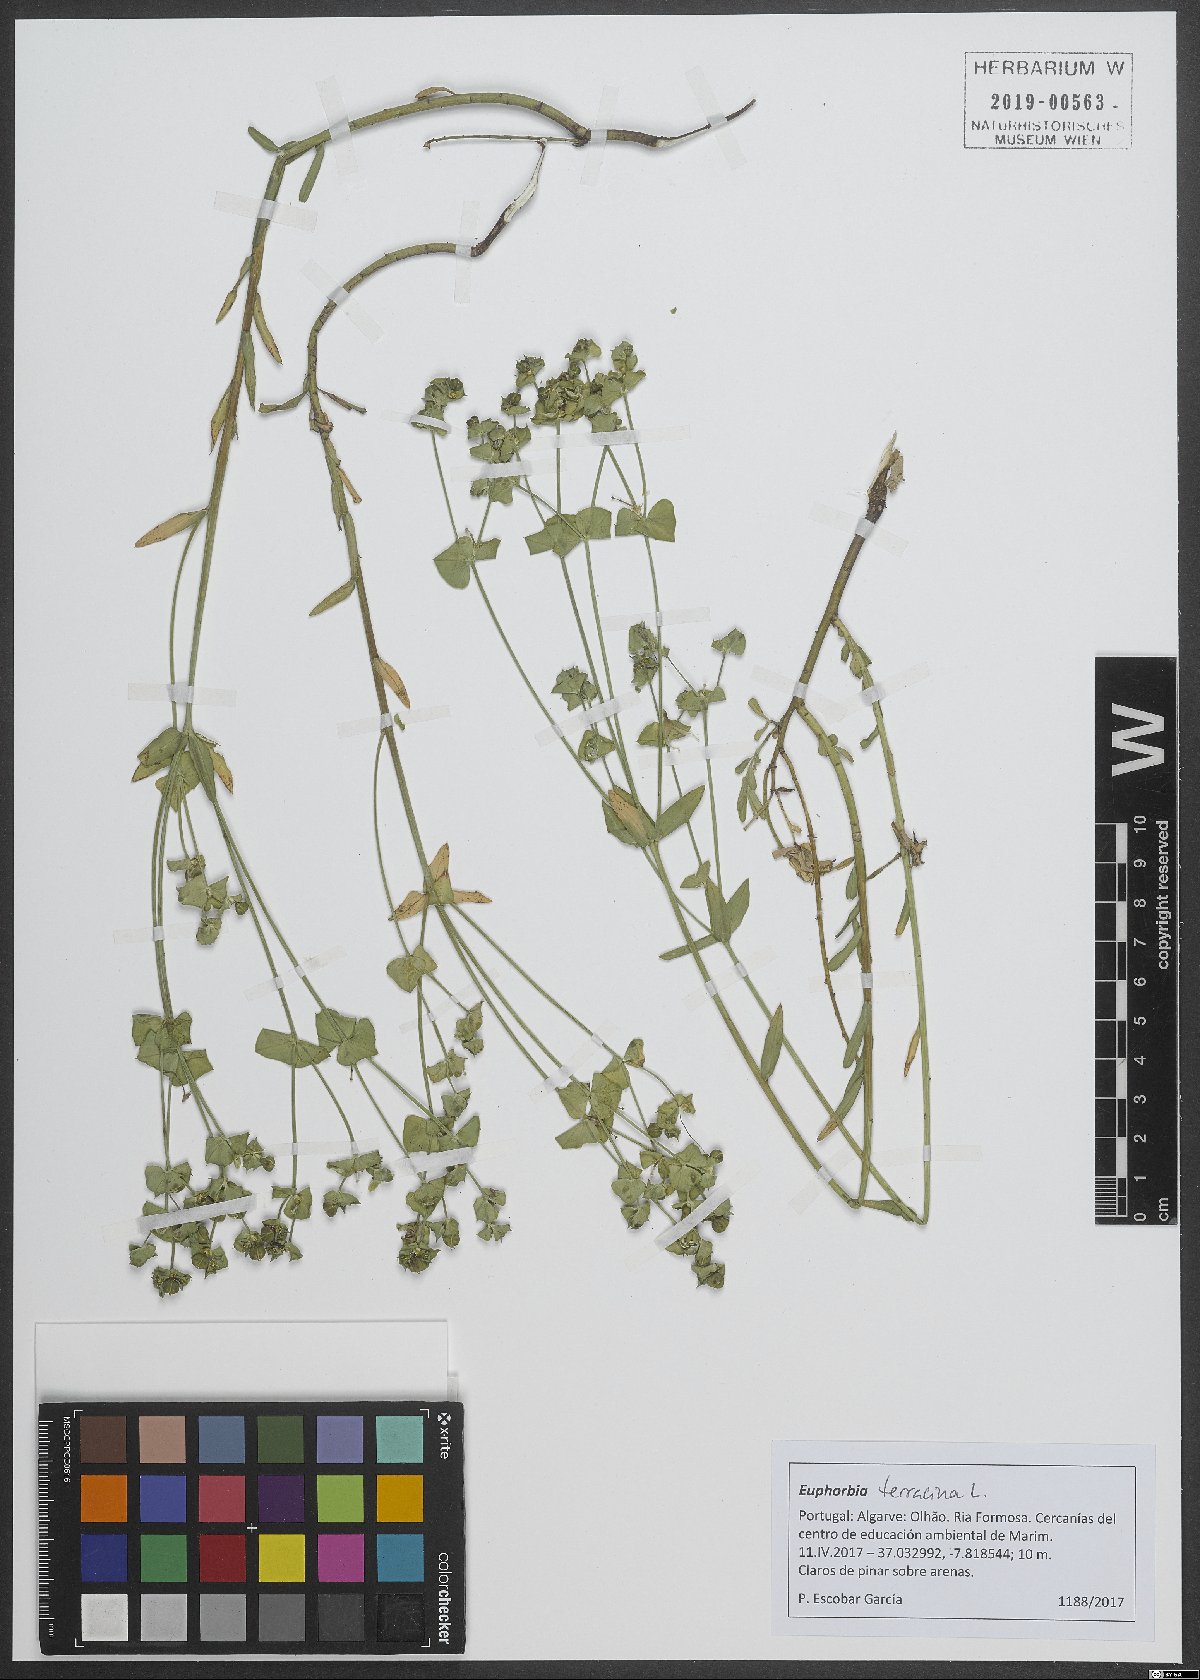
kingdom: Plantae
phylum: Tracheophyta
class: Magnoliopsida
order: Malpighiales
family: Euphorbiaceae
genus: Euphorbia
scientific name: Euphorbia terracina
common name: Geraldton carnation weed
